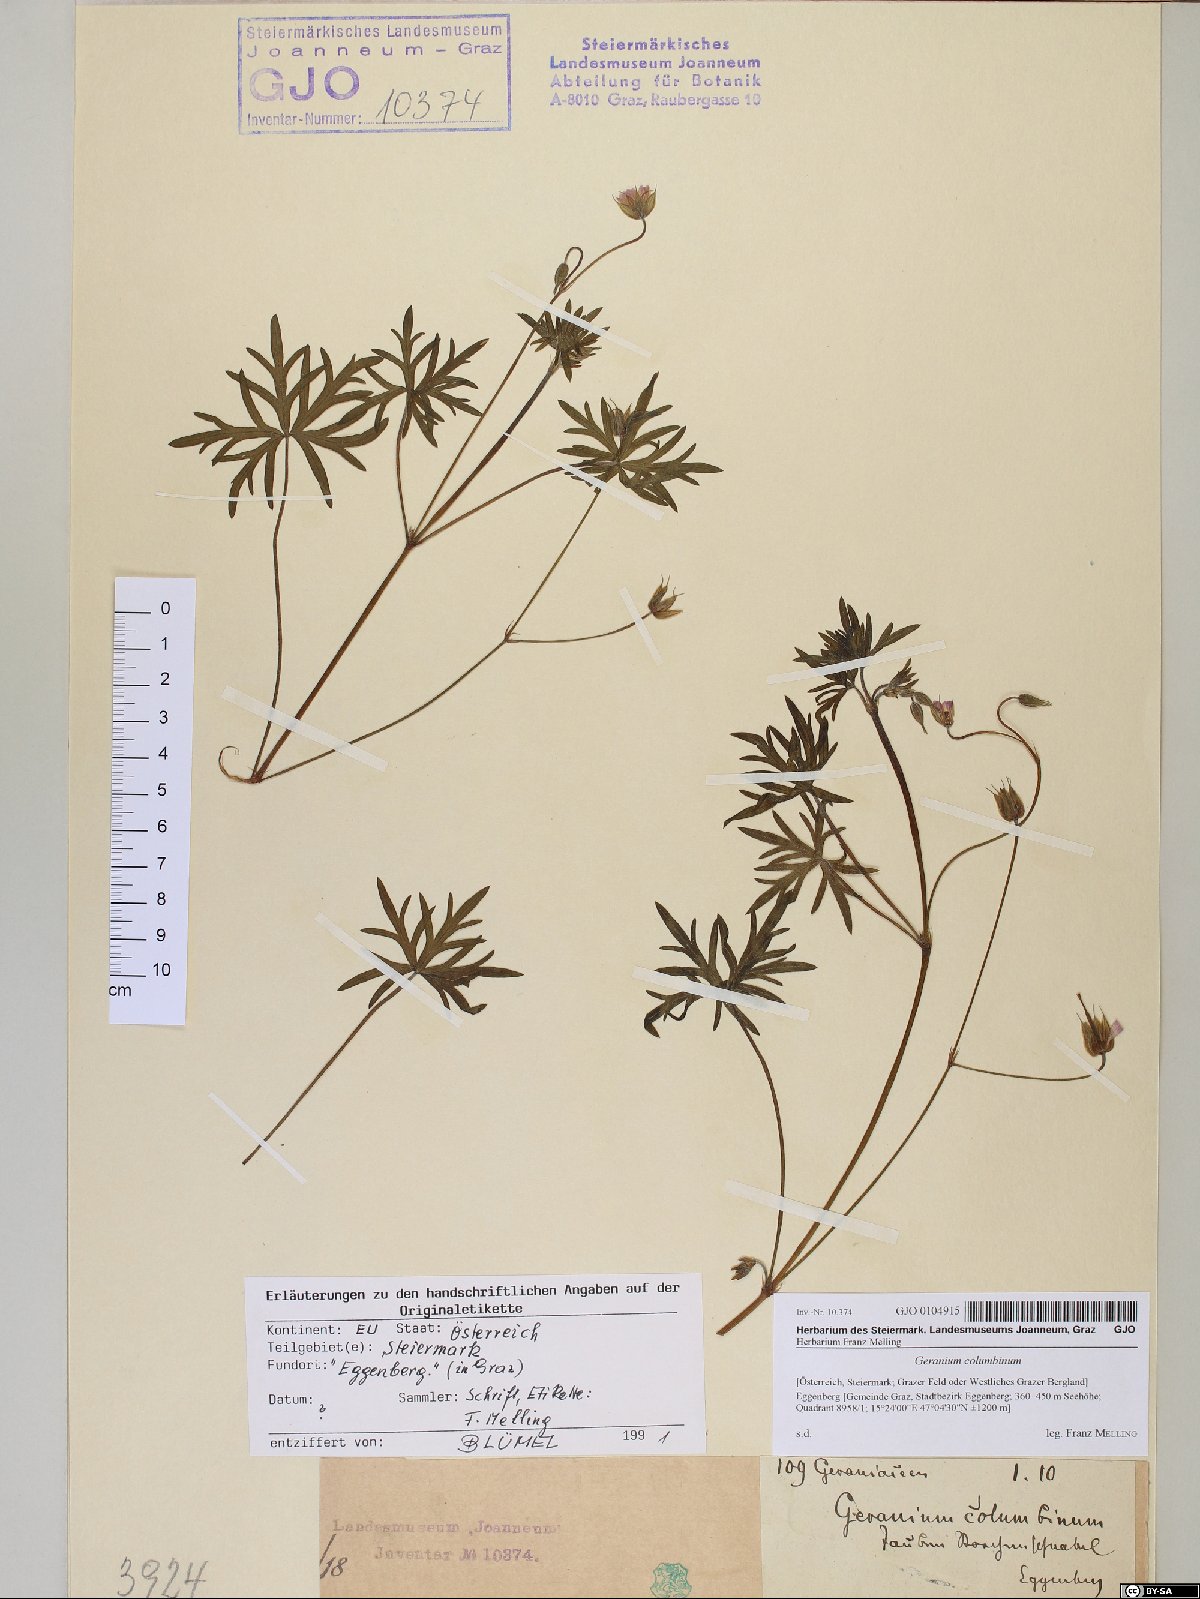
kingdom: Plantae
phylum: Tracheophyta
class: Magnoliopsida
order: Geraniales
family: Geraniaceae
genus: Geranium
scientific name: Geranium columbinum
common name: Long-stalked crane's-bill
